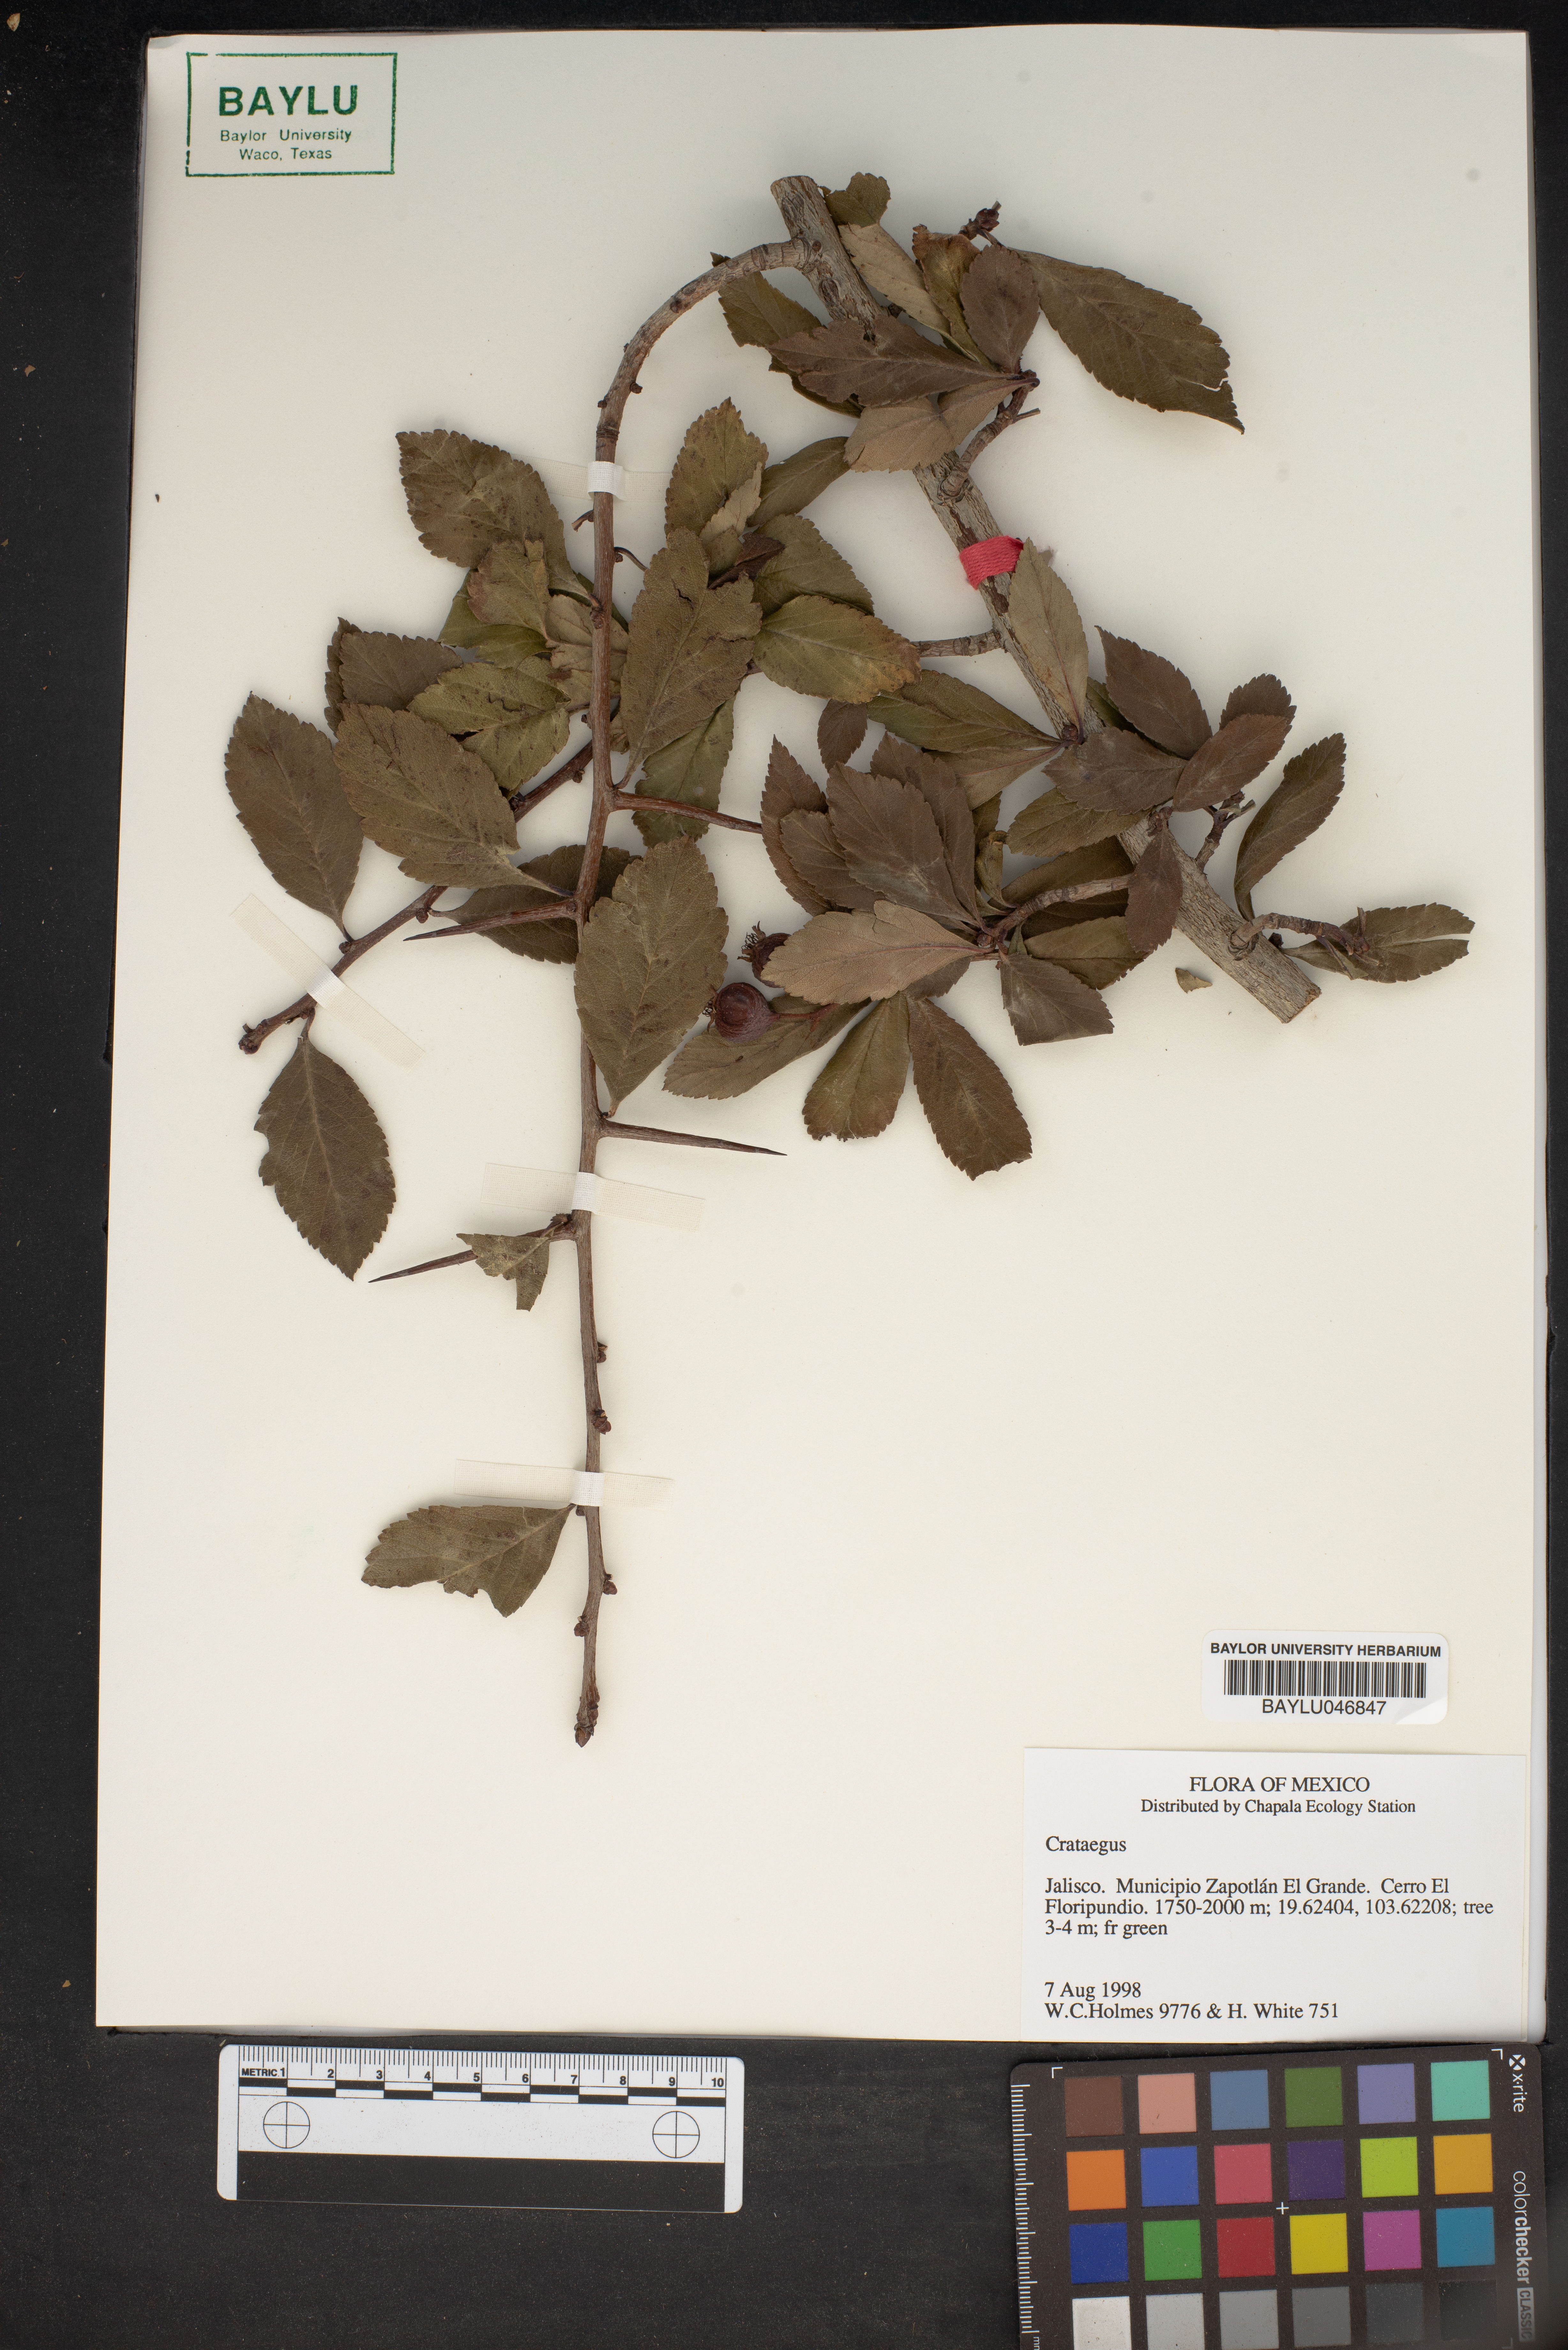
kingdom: Plantae
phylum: Tracheophyta
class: Magnoliopsida
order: Rosales
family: Rosaceae
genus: Crataegus
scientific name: Crataegus
